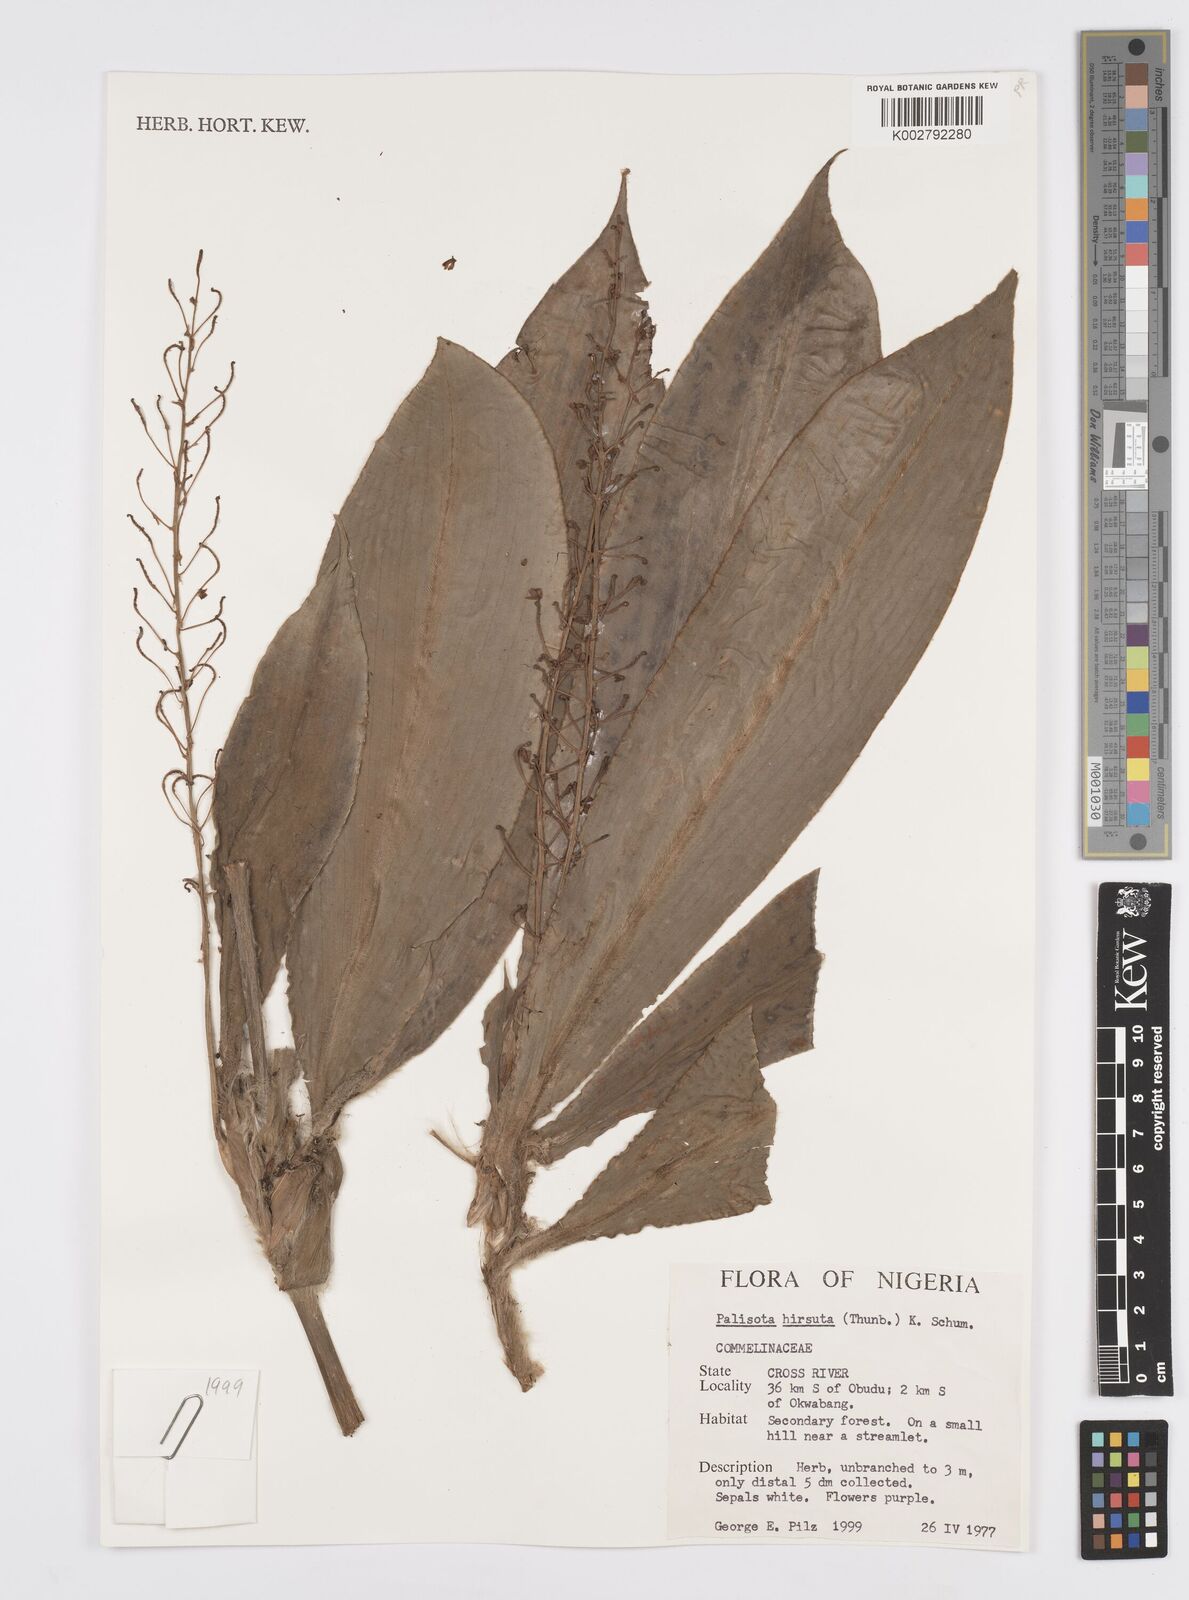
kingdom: Plantae
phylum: Tracheophyta
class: Liliopsida
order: Commelinales
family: Commelinaceae
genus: Palisota
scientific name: Palisota hirsuta
